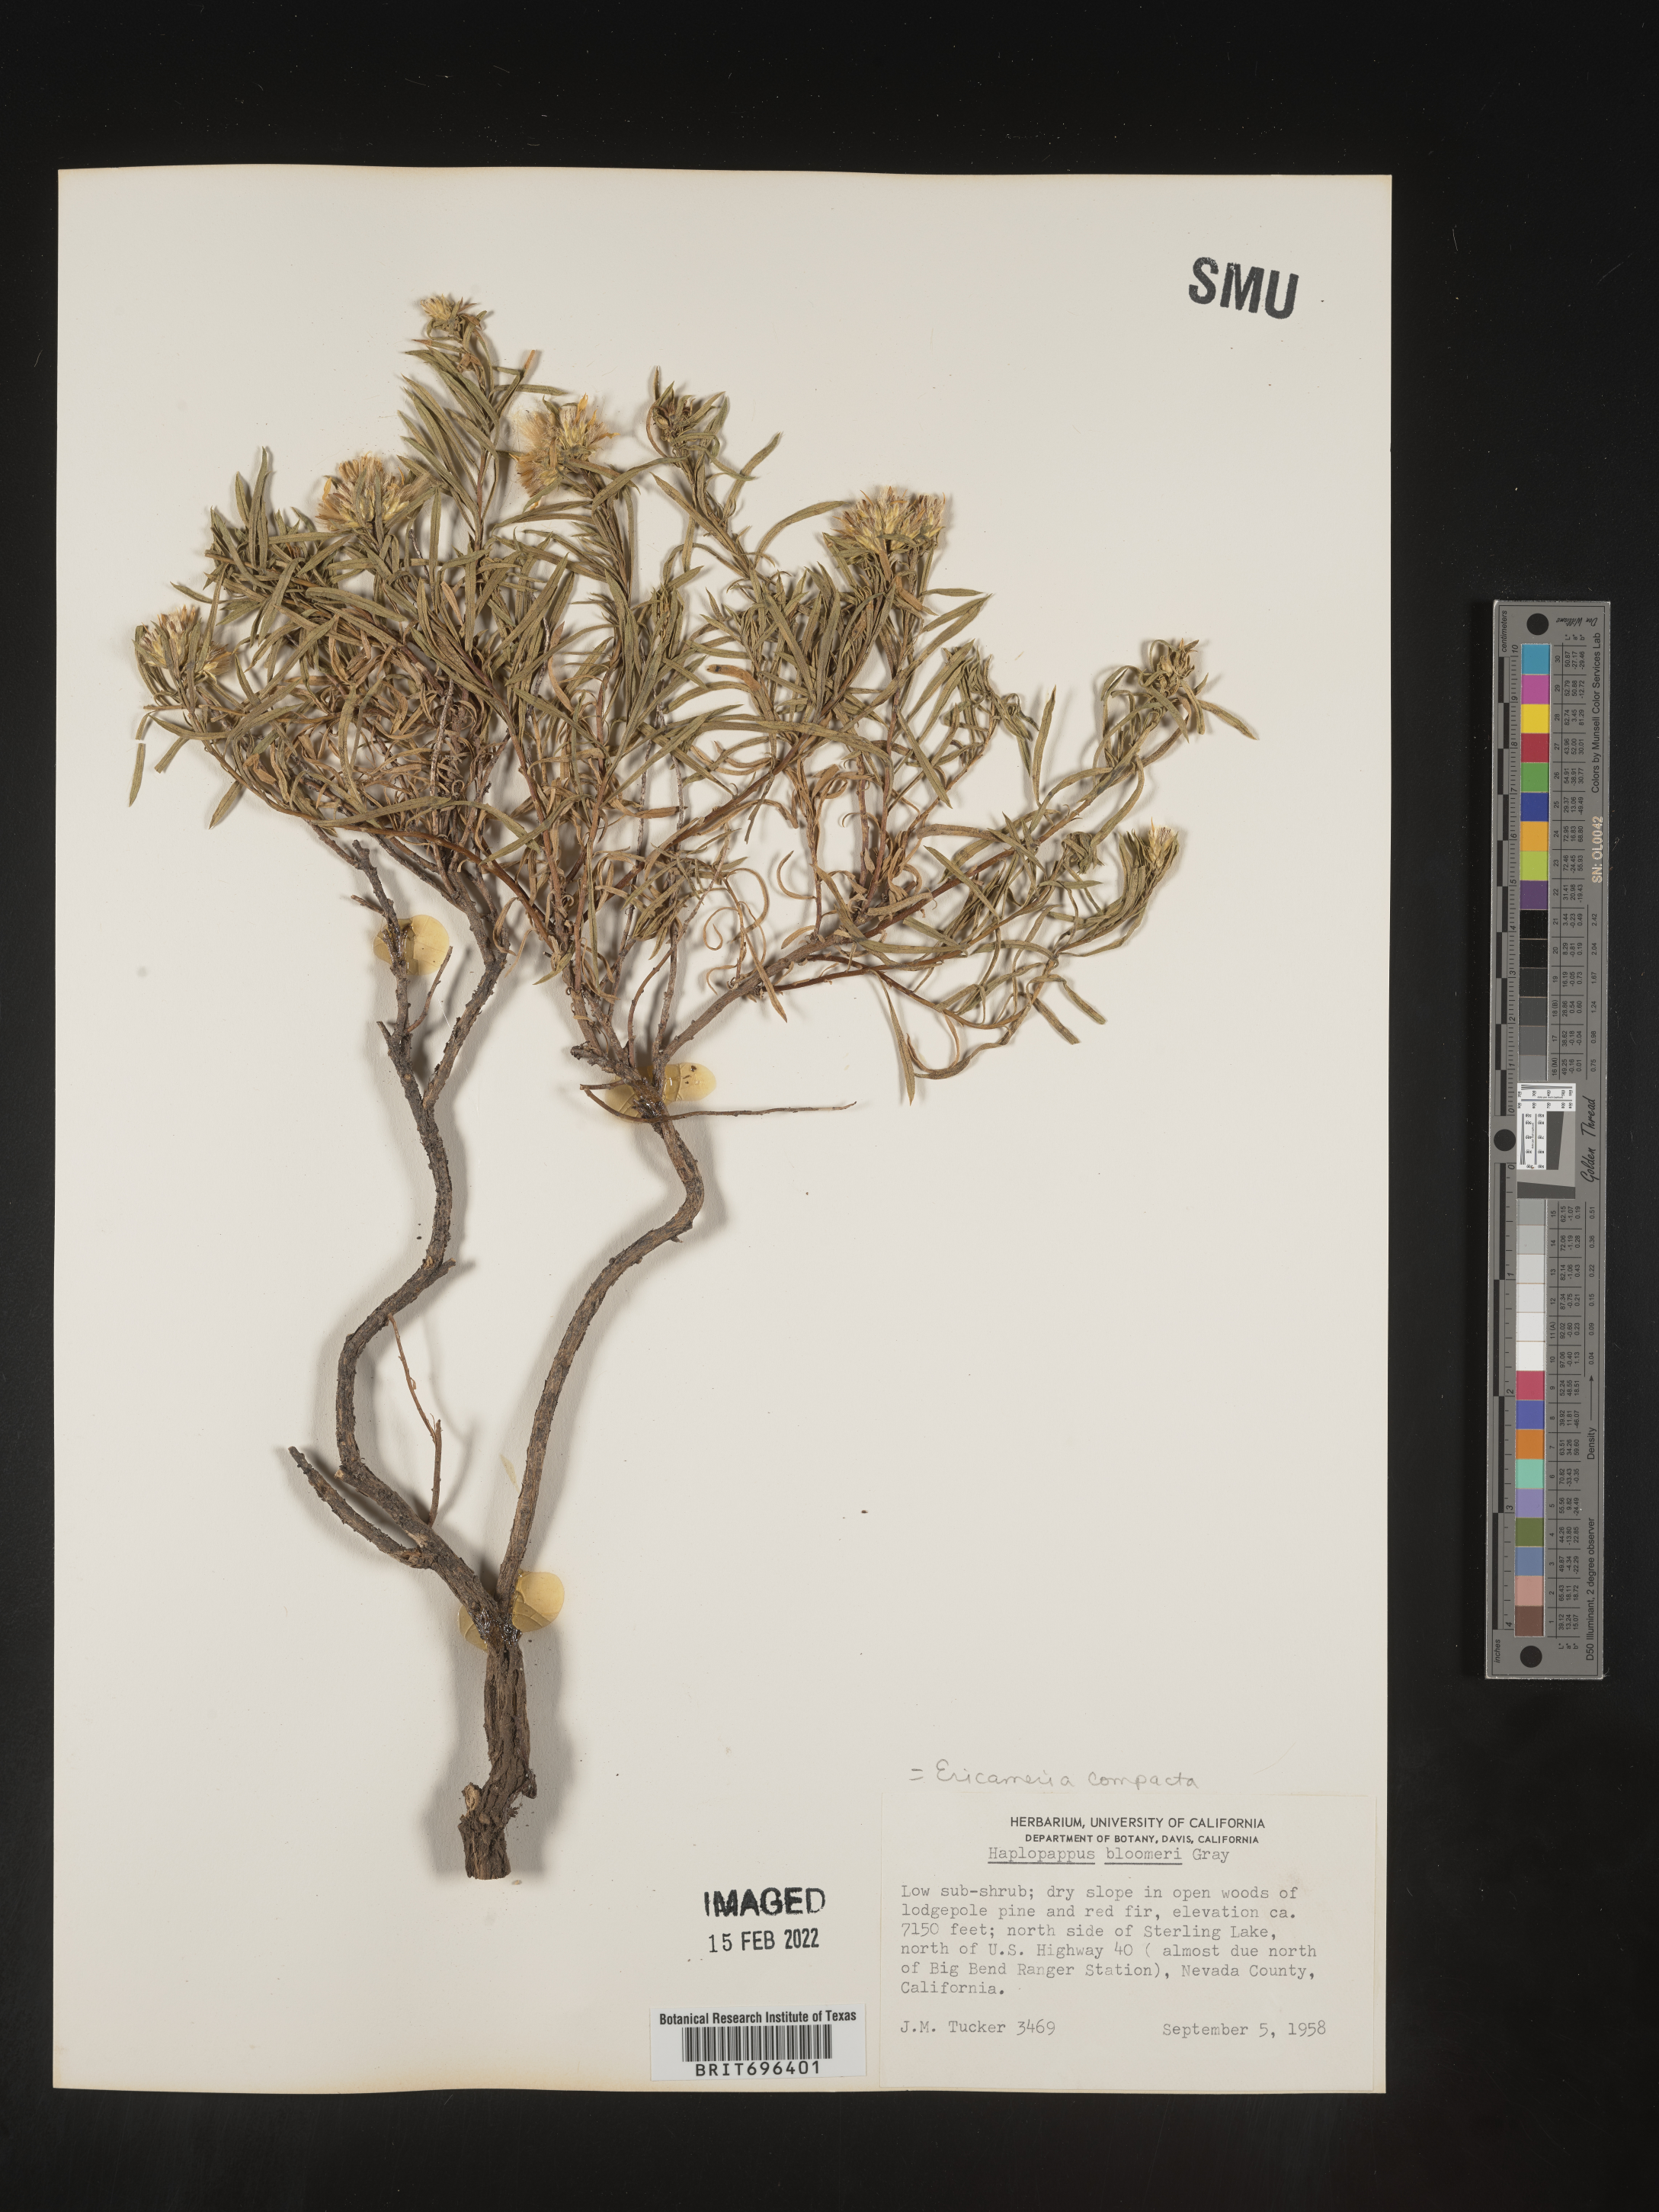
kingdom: Plantae
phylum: Tracheophyta
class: Magnoliopsida
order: Asterales
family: Asteraceae
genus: Ericameria
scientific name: Ericameria bloomeri
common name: Bloomer's goldenbush
